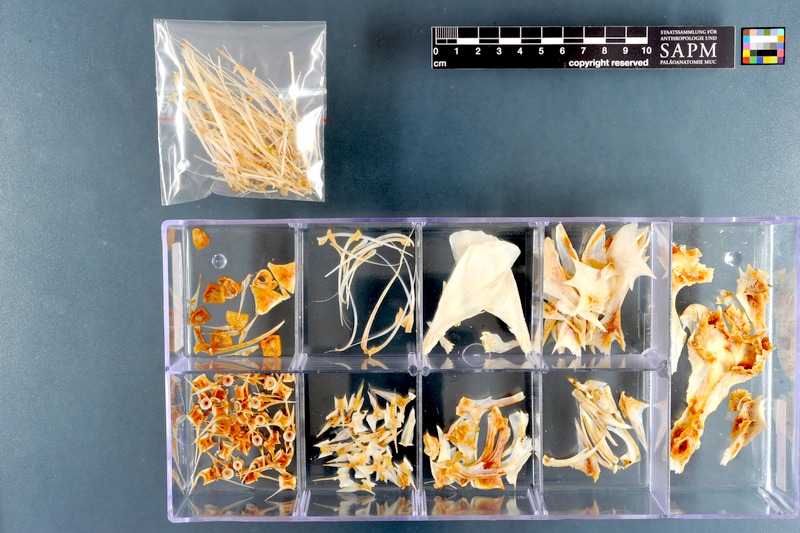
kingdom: Animalia
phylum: Chordata
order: Scorpaeniformes
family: Triglidae
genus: Chelidonichthys
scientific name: Chelidonichthys kumu
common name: Bluefin gurnard
